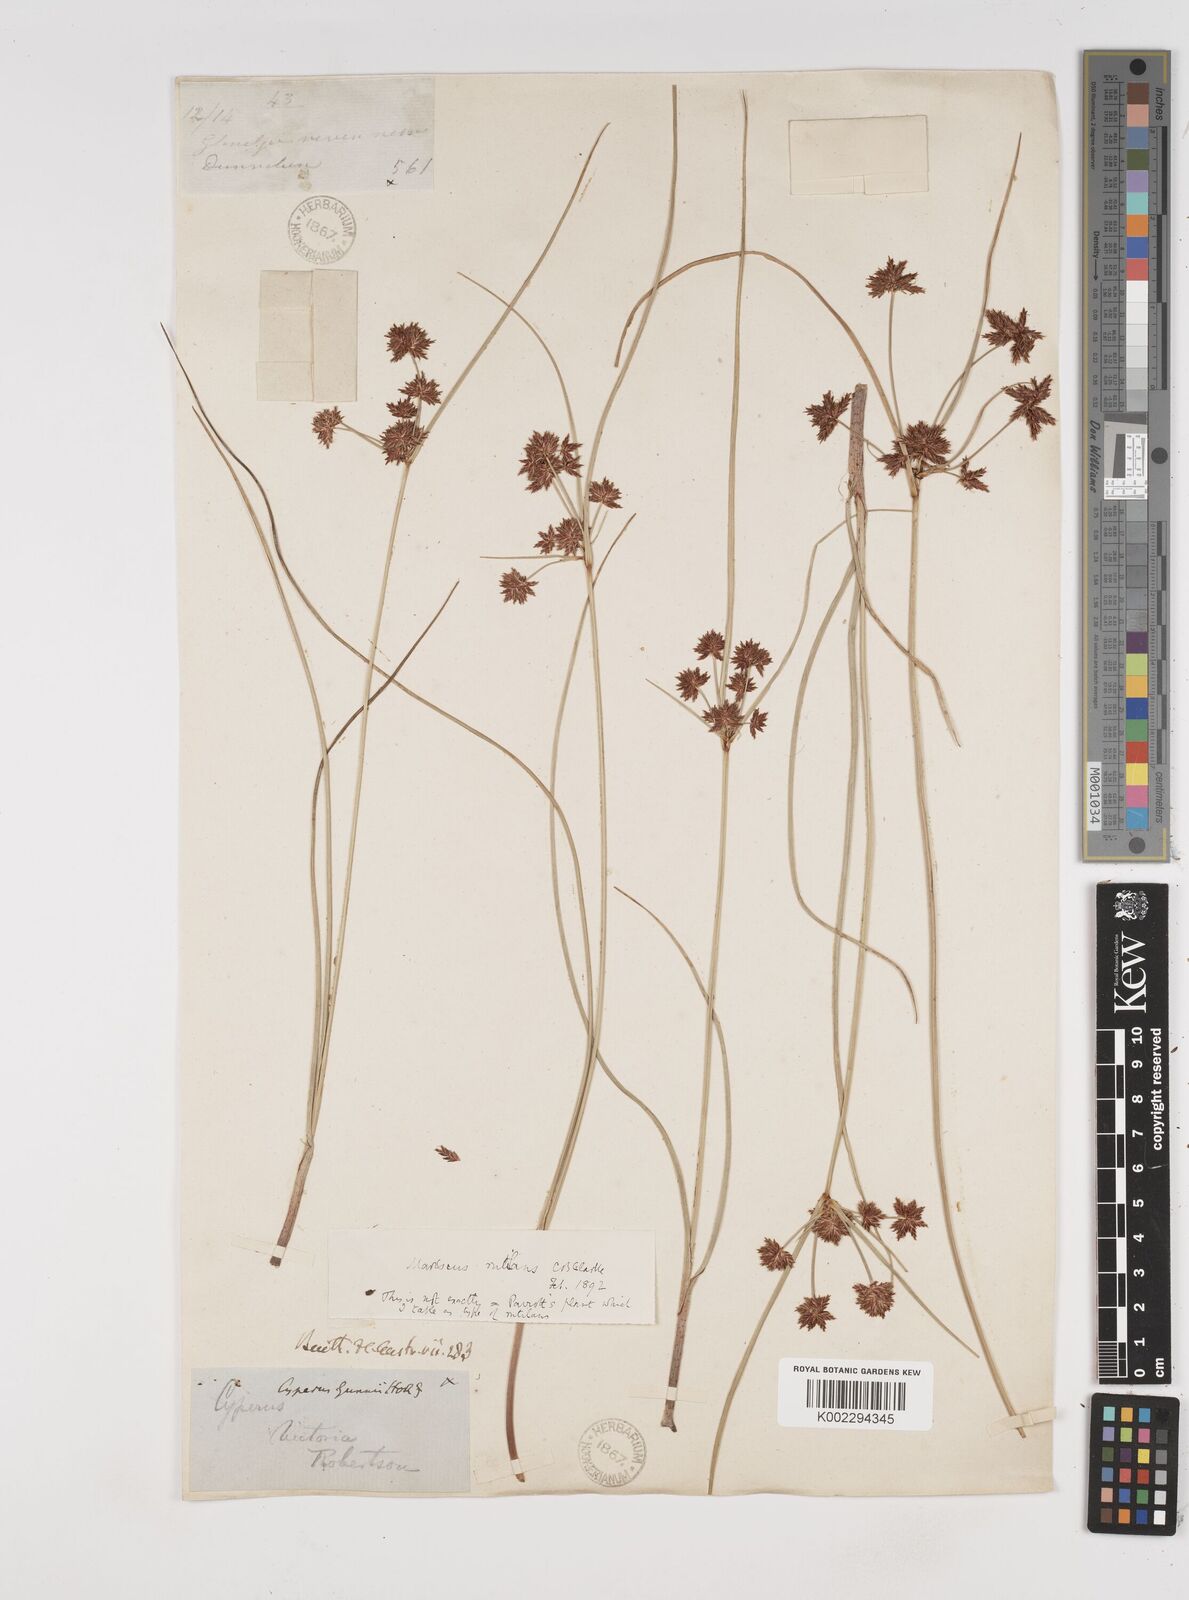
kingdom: Plantae
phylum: Tracheophyta
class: Liliopsida
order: Poales
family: Cyperaceae
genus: Cyperus
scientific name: Cyperus lhotskyanus
